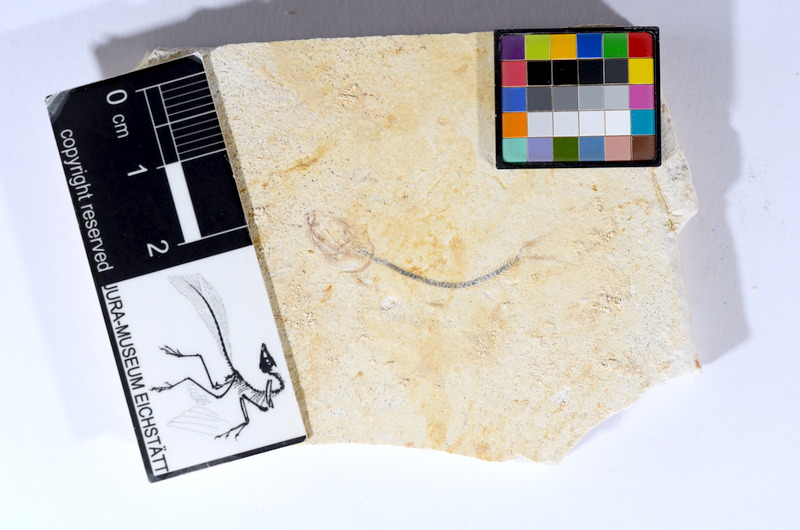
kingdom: Animalia
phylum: Chordata
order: Salmoniformes
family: Orthogonikleithridae
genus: Orthogonikleithrus
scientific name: Orthogonikleithrus hoelli
